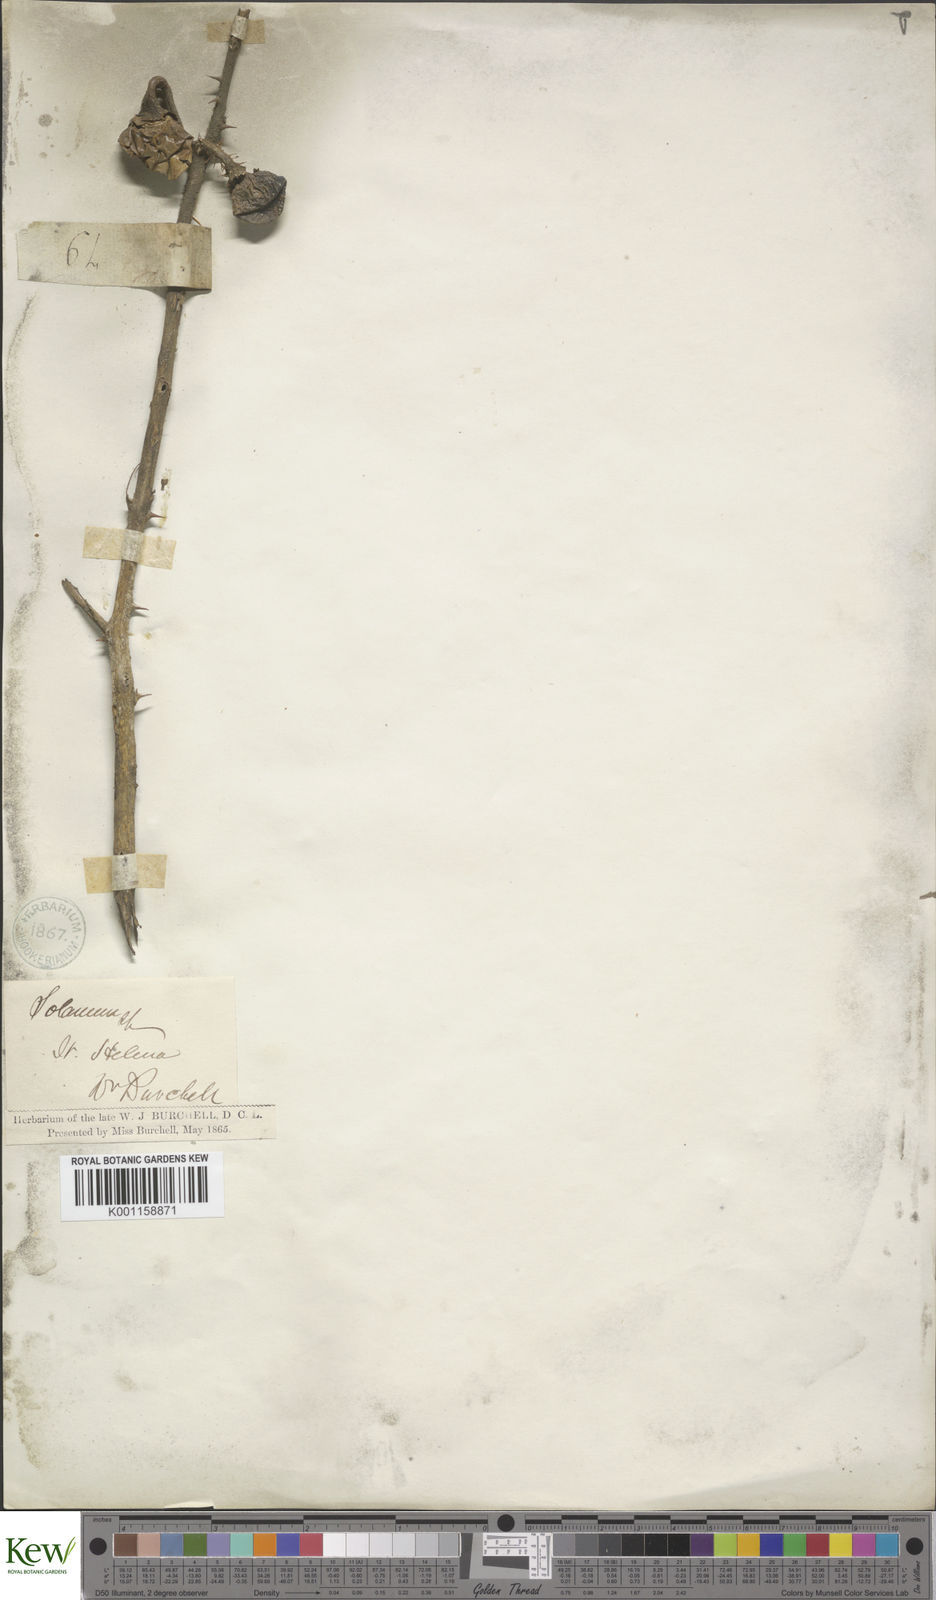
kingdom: Plantae
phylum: Tracheophyta
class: Magnoliopsida
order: Solanales
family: Solanaceae
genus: Solanum
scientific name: Solanum linnaeanum
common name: Nightshade
